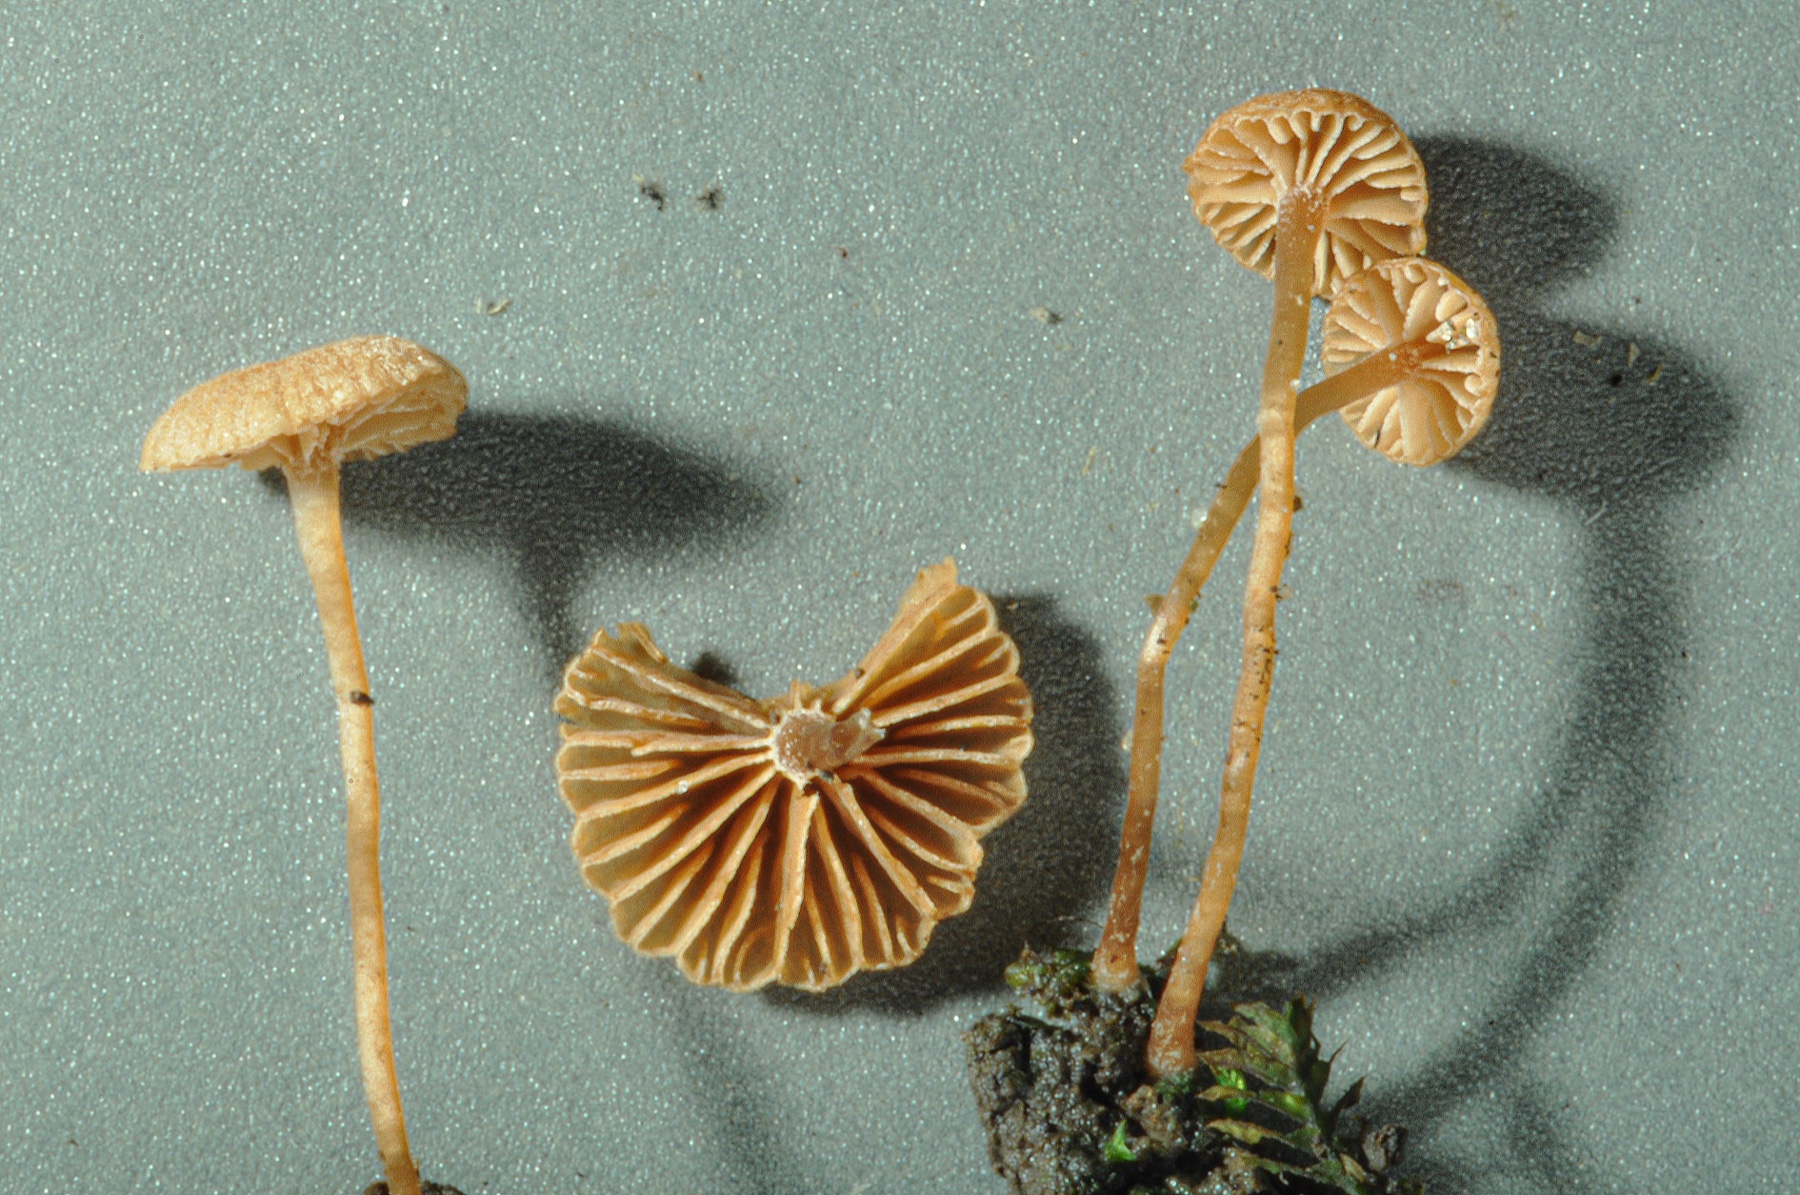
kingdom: Fungi
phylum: Basidiomycota
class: Agaricomycetes
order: Agaricales
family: Tubariaceae
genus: Tubaria
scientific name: Tubaria albostipitata
